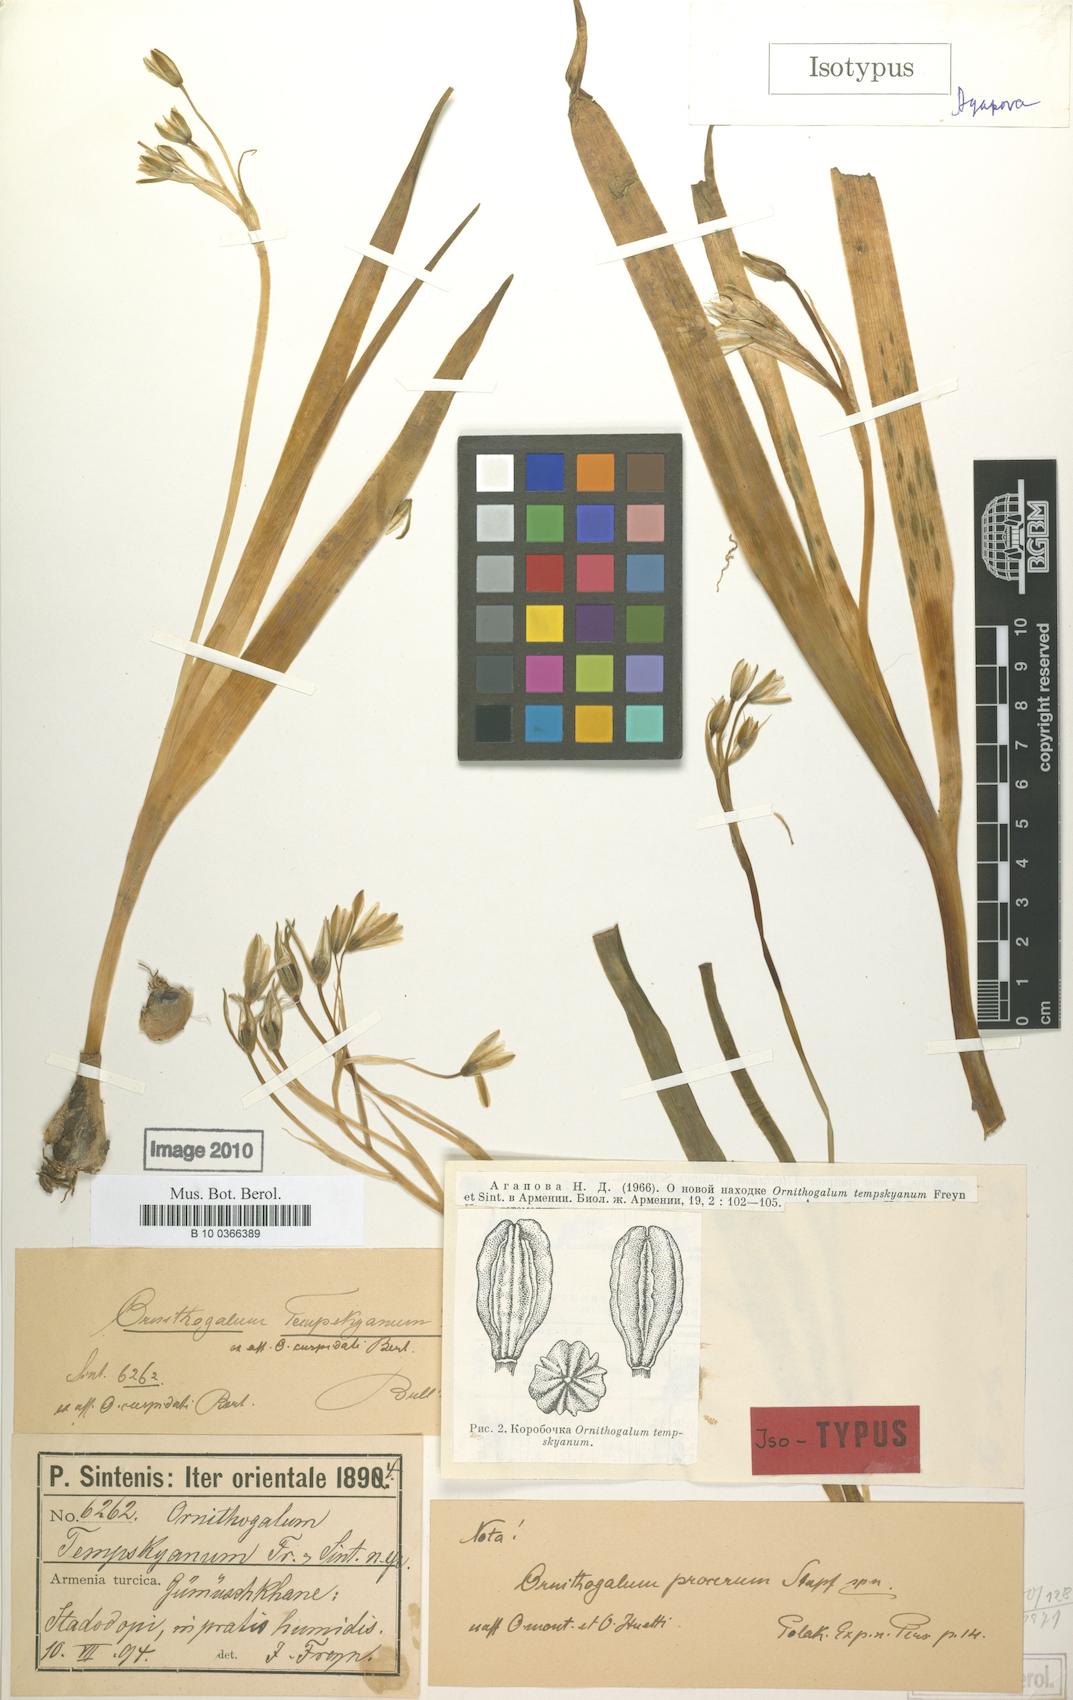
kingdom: Plantae
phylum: Tracheophyta
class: Liliopsida
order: Asparagales
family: Asparagaceae
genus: Ornithogalum
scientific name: Ornithogalum graciliflorum
